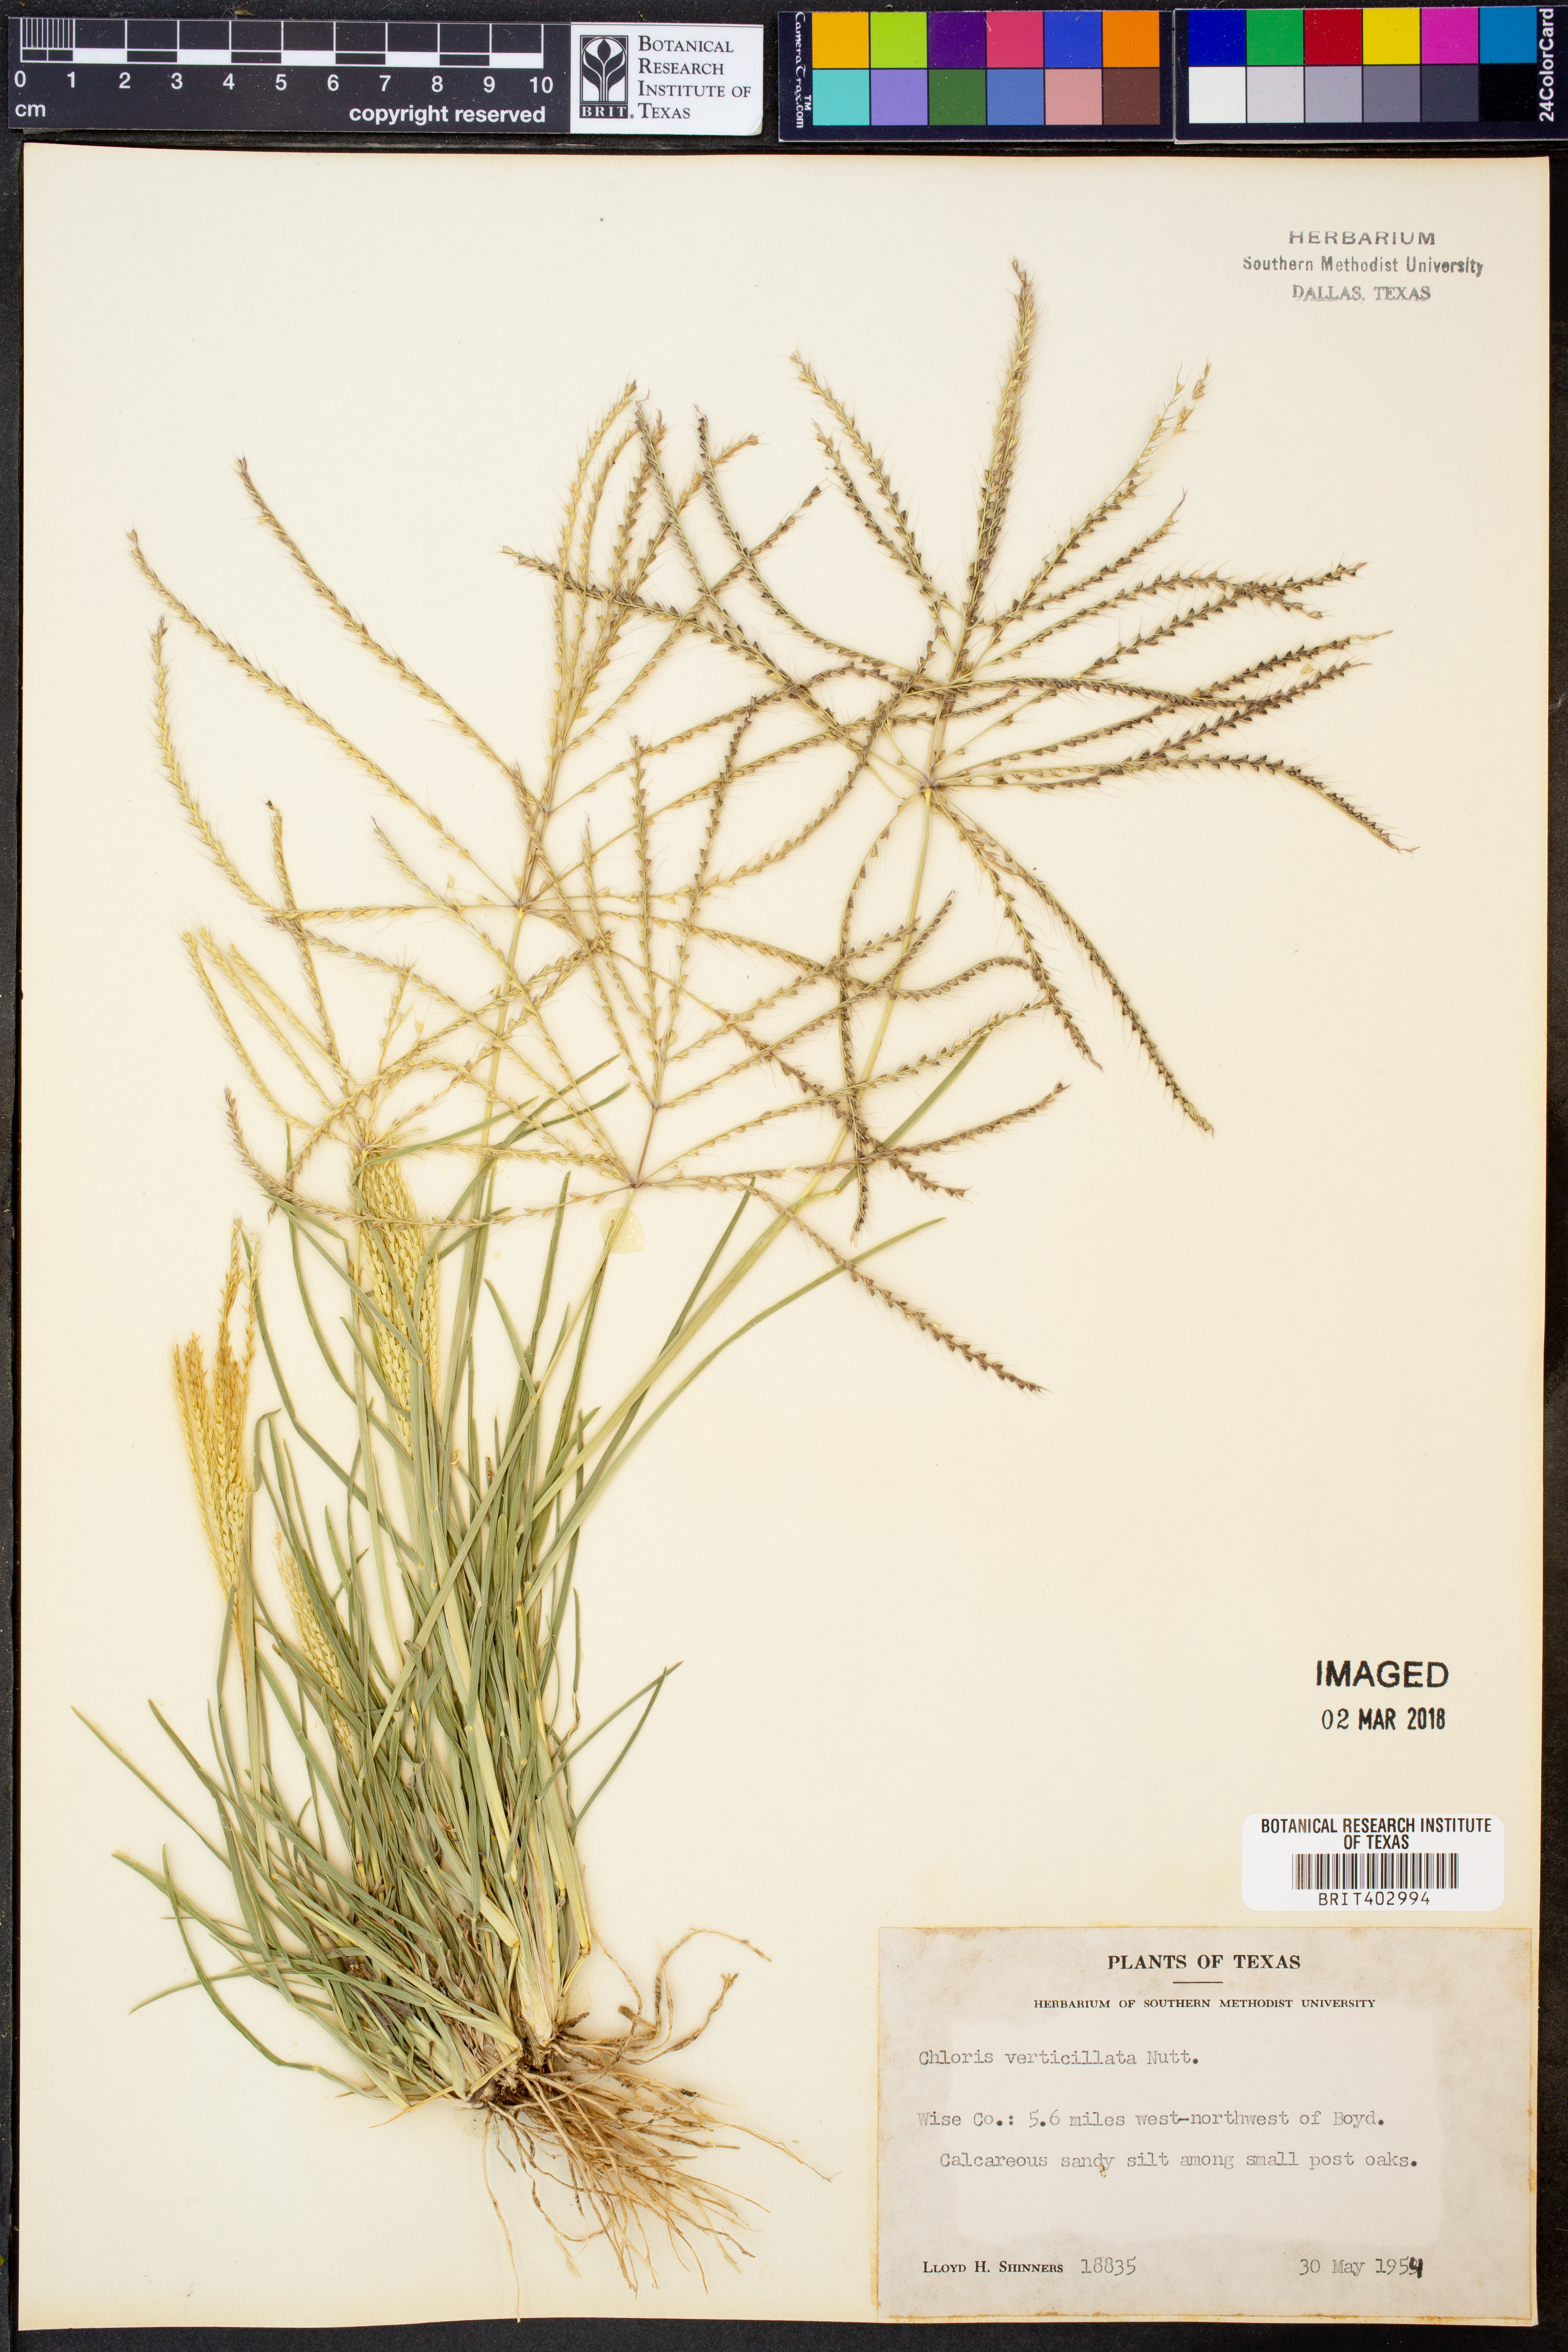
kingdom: Plantae
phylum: Tracheophyta
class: Liliopsida
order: Poales
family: Poaceae
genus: Chloris
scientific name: Chloris verticillata
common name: Tumble windmill grass
